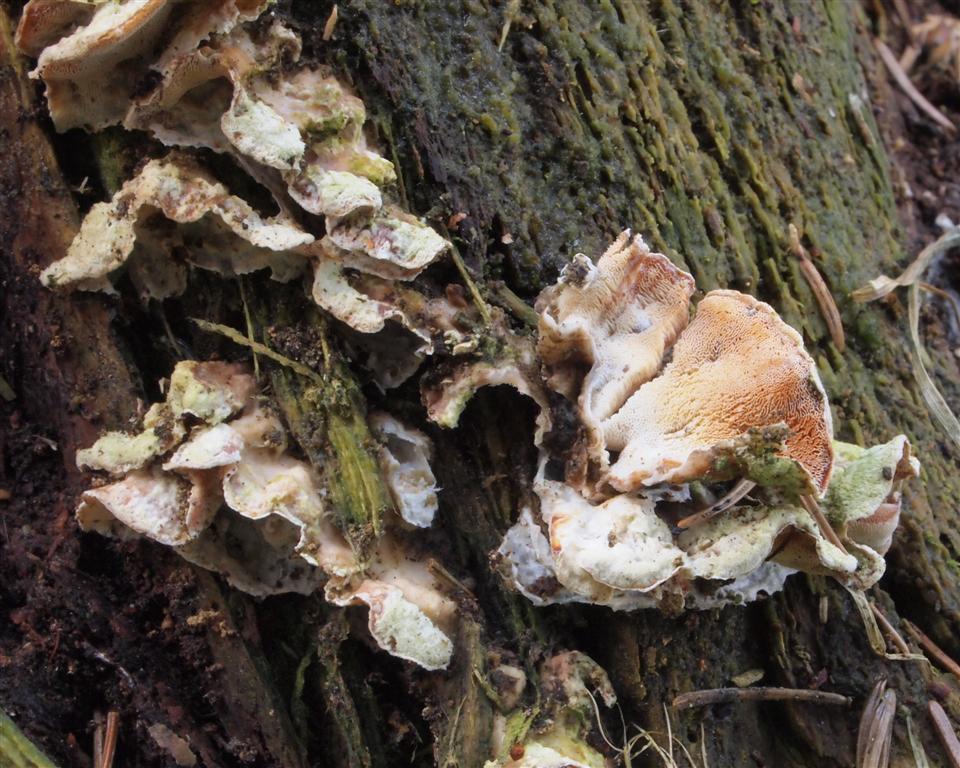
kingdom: Fungi
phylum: Basidiomycota
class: Agaricomycetes
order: Polyporales
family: Incrustoporiaceae
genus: Skeletocutis
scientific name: Skeletocutis amorpha
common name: orange krystalporesvamp
